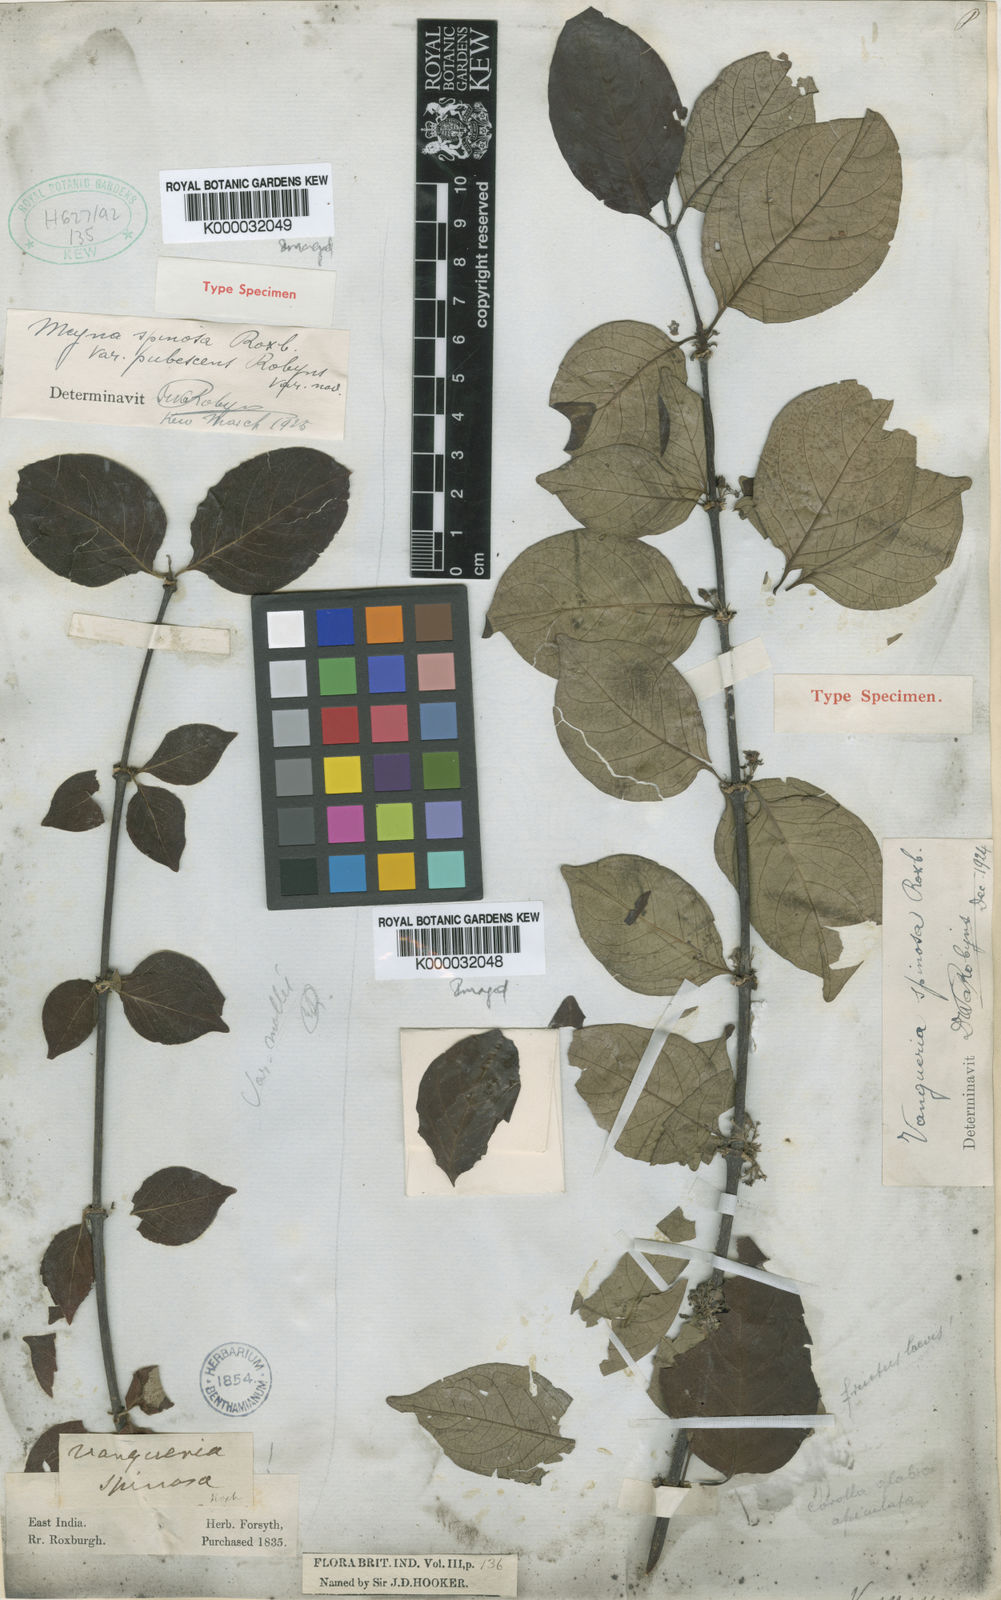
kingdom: Plantae
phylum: Tracheophyta
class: Magnoliopsida
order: Gentianales
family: Rubiaceae
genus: Meyna
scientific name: Meyna laxiflora
